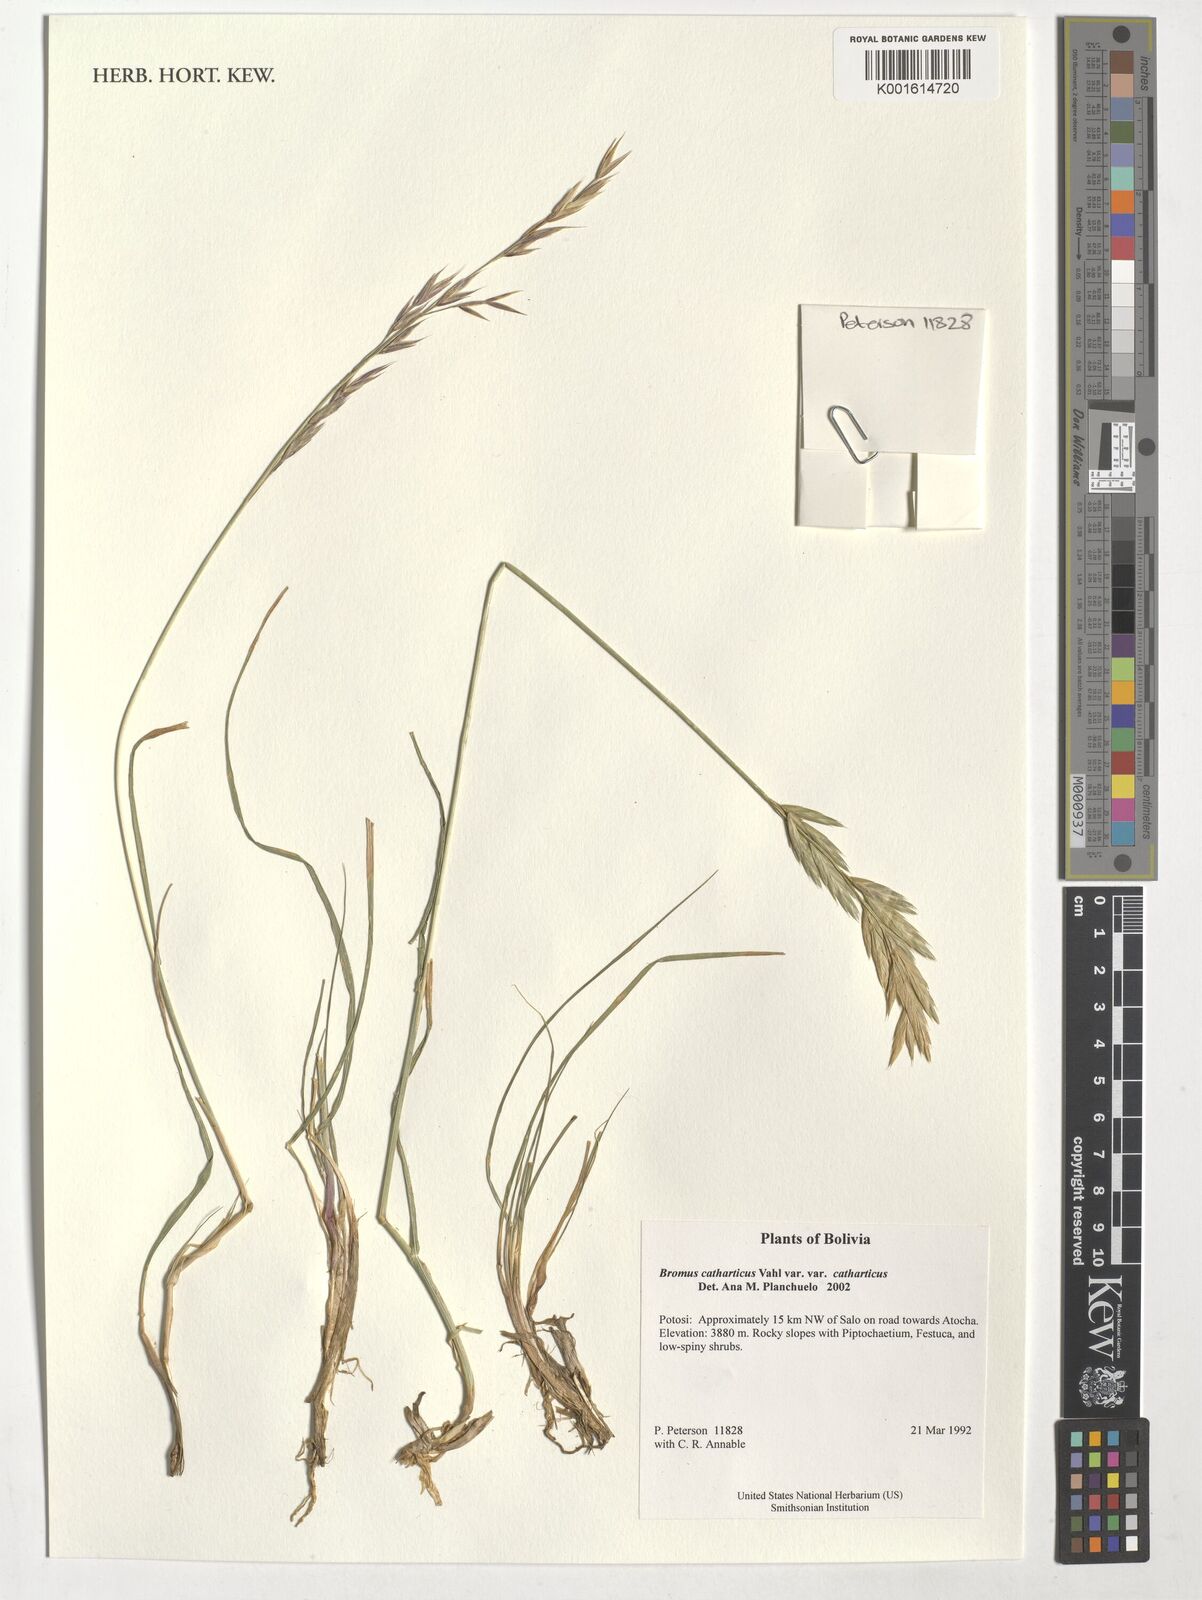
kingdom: Plantae
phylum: Tracheophyta
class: Liliopsida
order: Poales
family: Poaceae
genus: Bromus
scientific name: Bromus catharticus
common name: Rescuegrass
